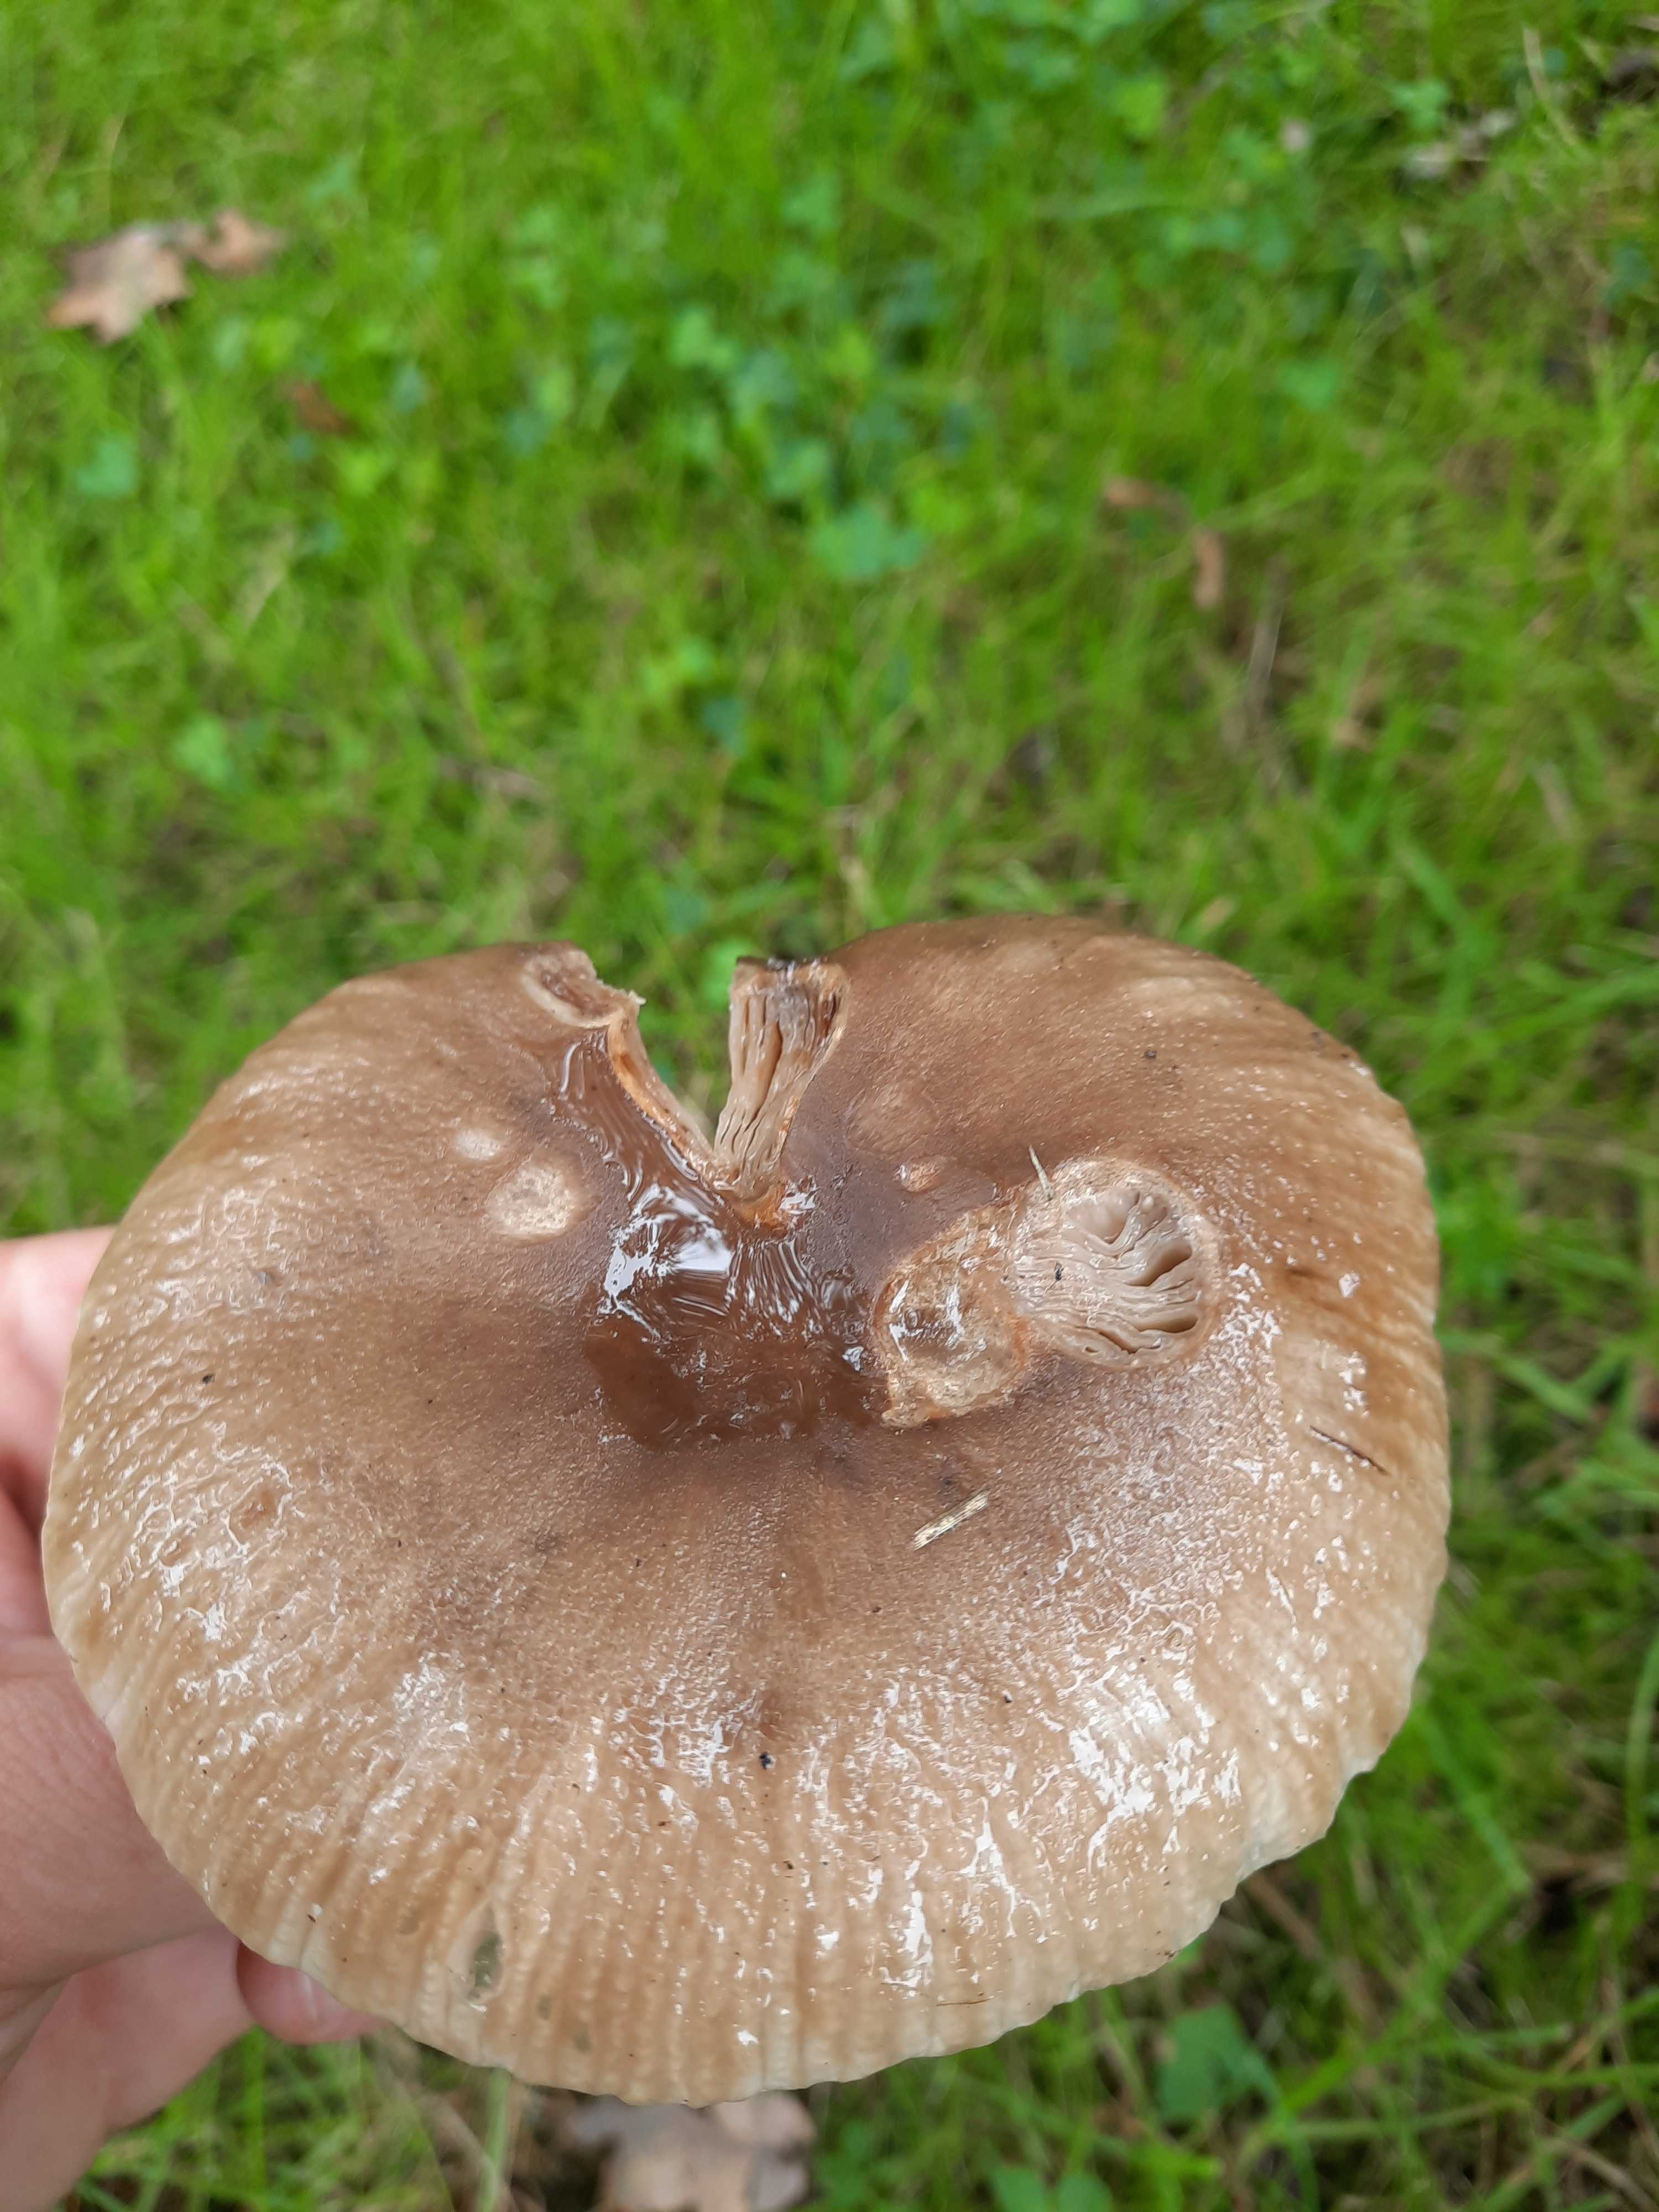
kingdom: Fungi
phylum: Basidiomycota
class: Agaricomycetes
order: Russulales
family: Russulaceae
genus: Russula
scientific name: Russula amoenolens
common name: skarp kam-skørhat
